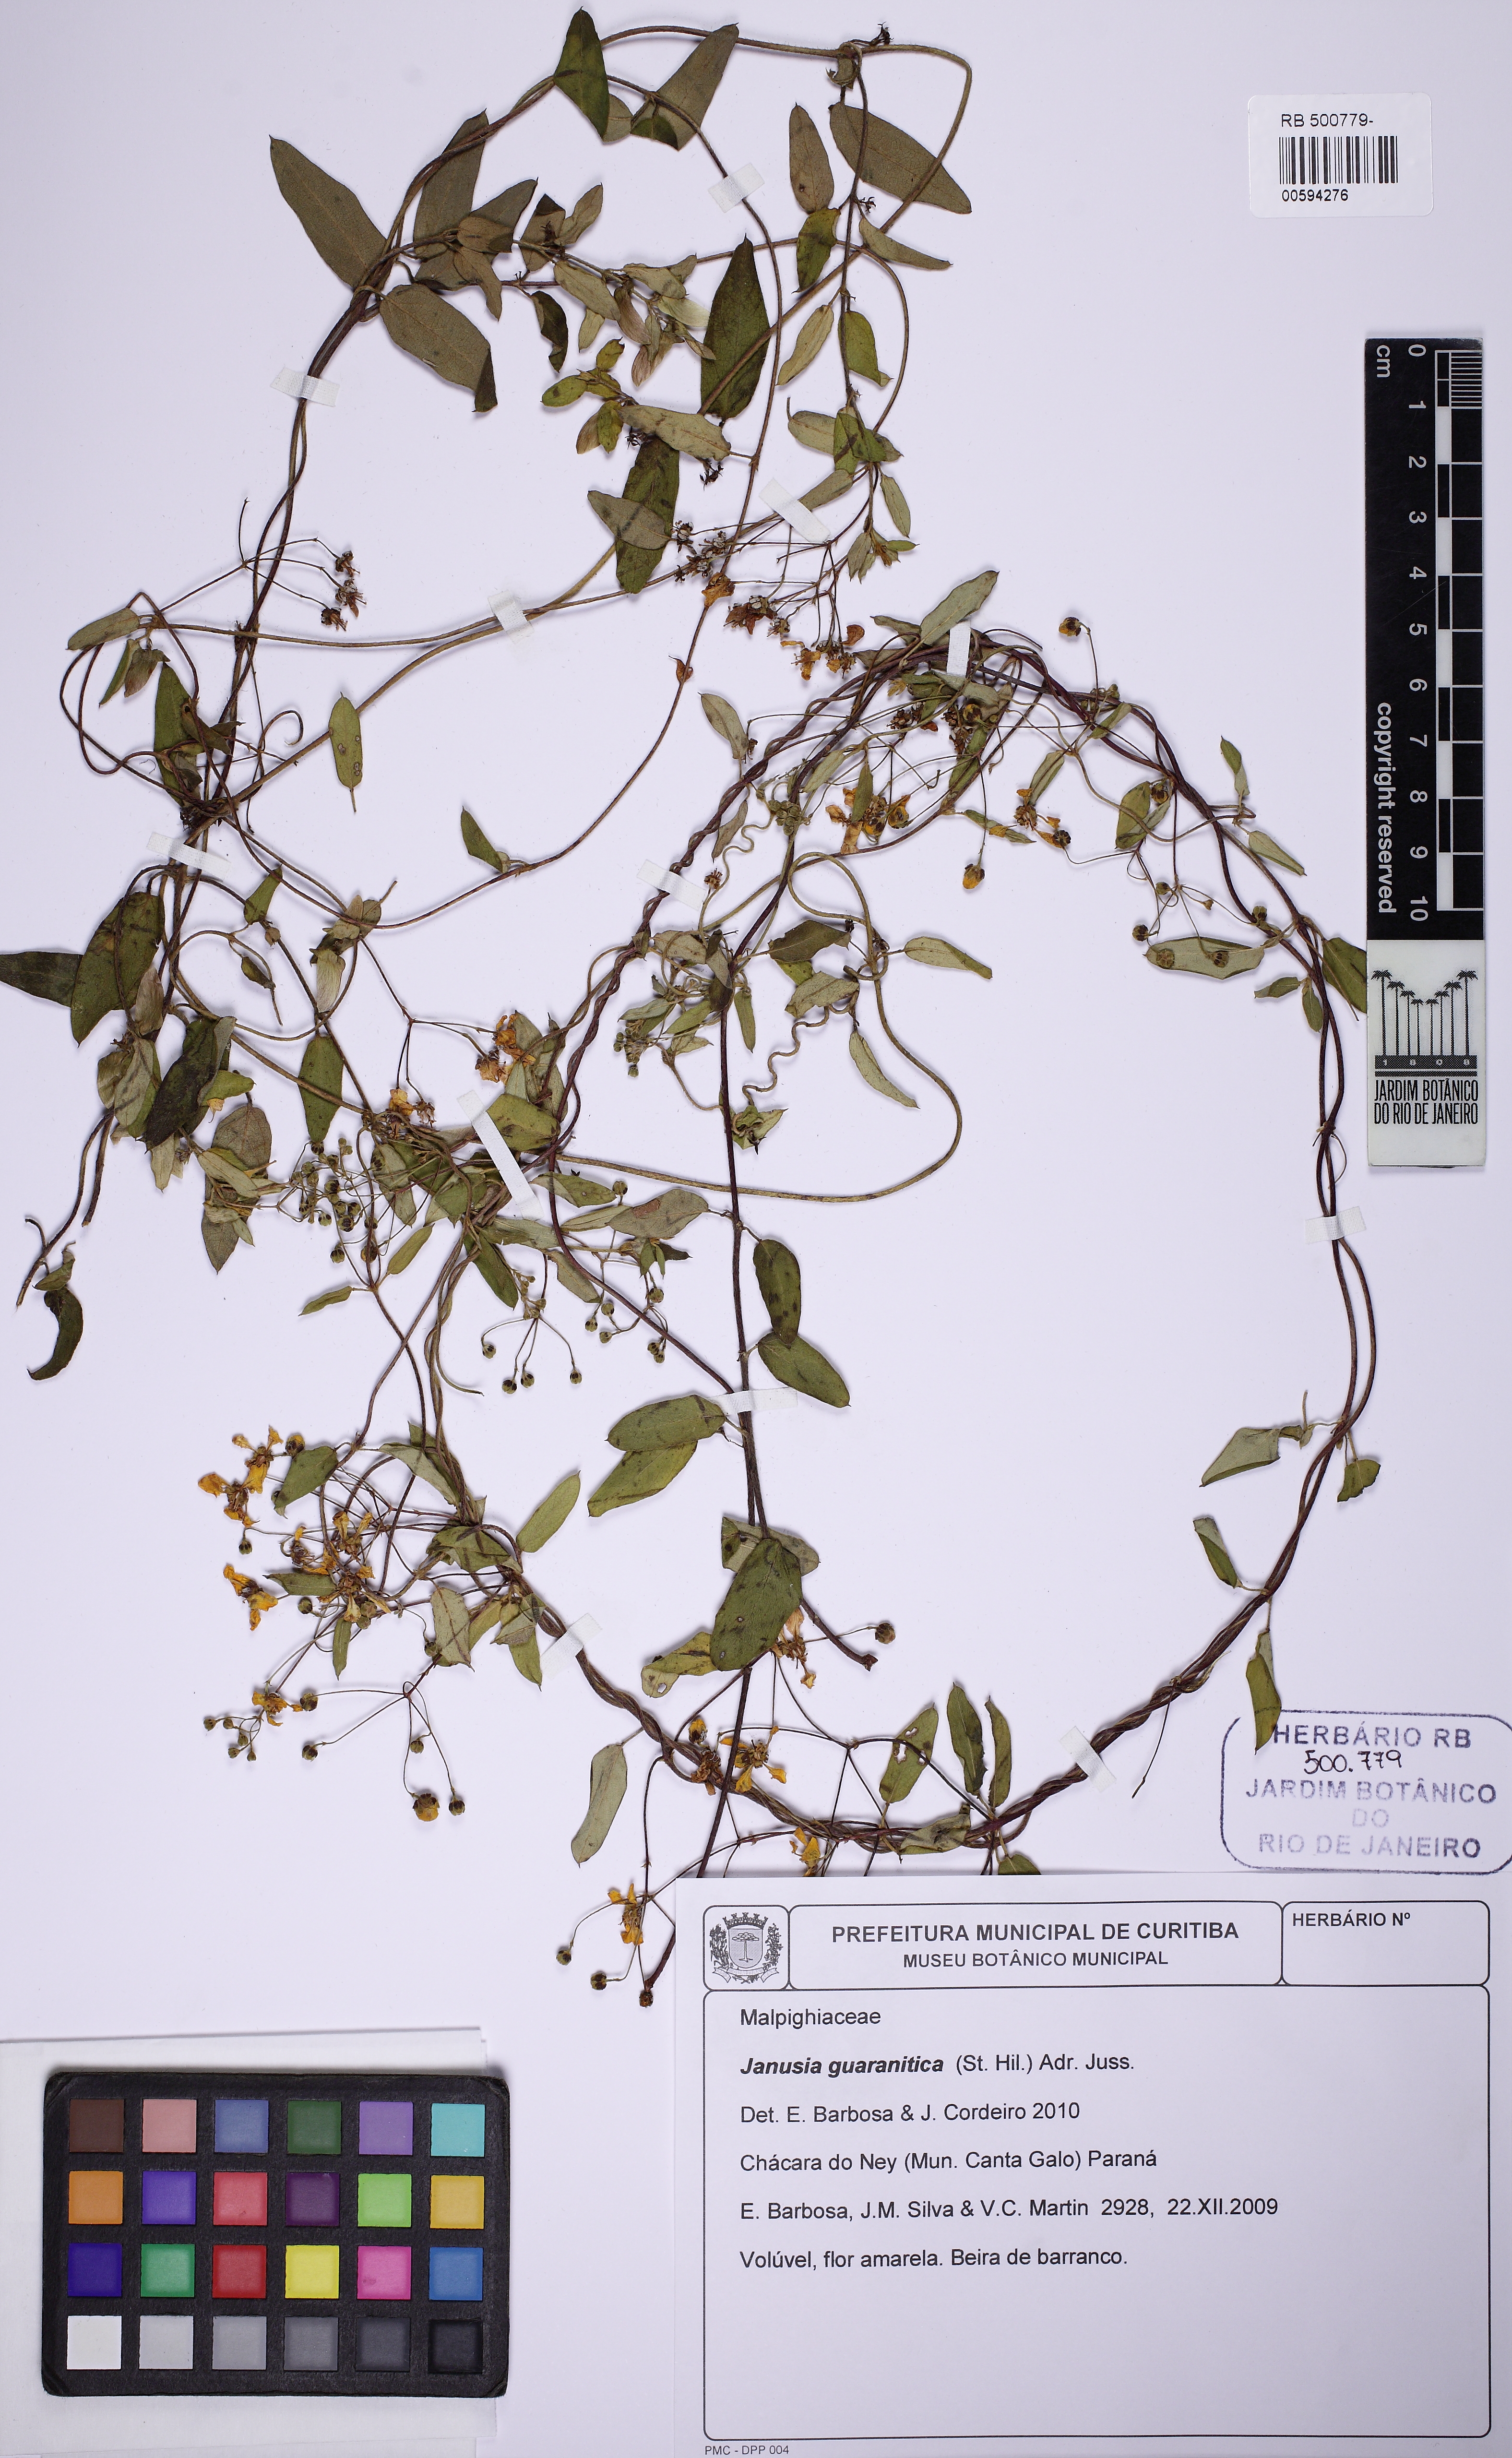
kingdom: Plantae
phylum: Tracheophyta
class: Magnoliopsida
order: Malpighiales
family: Malpighiaceae
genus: Janusia
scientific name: Janusia guaranitica
